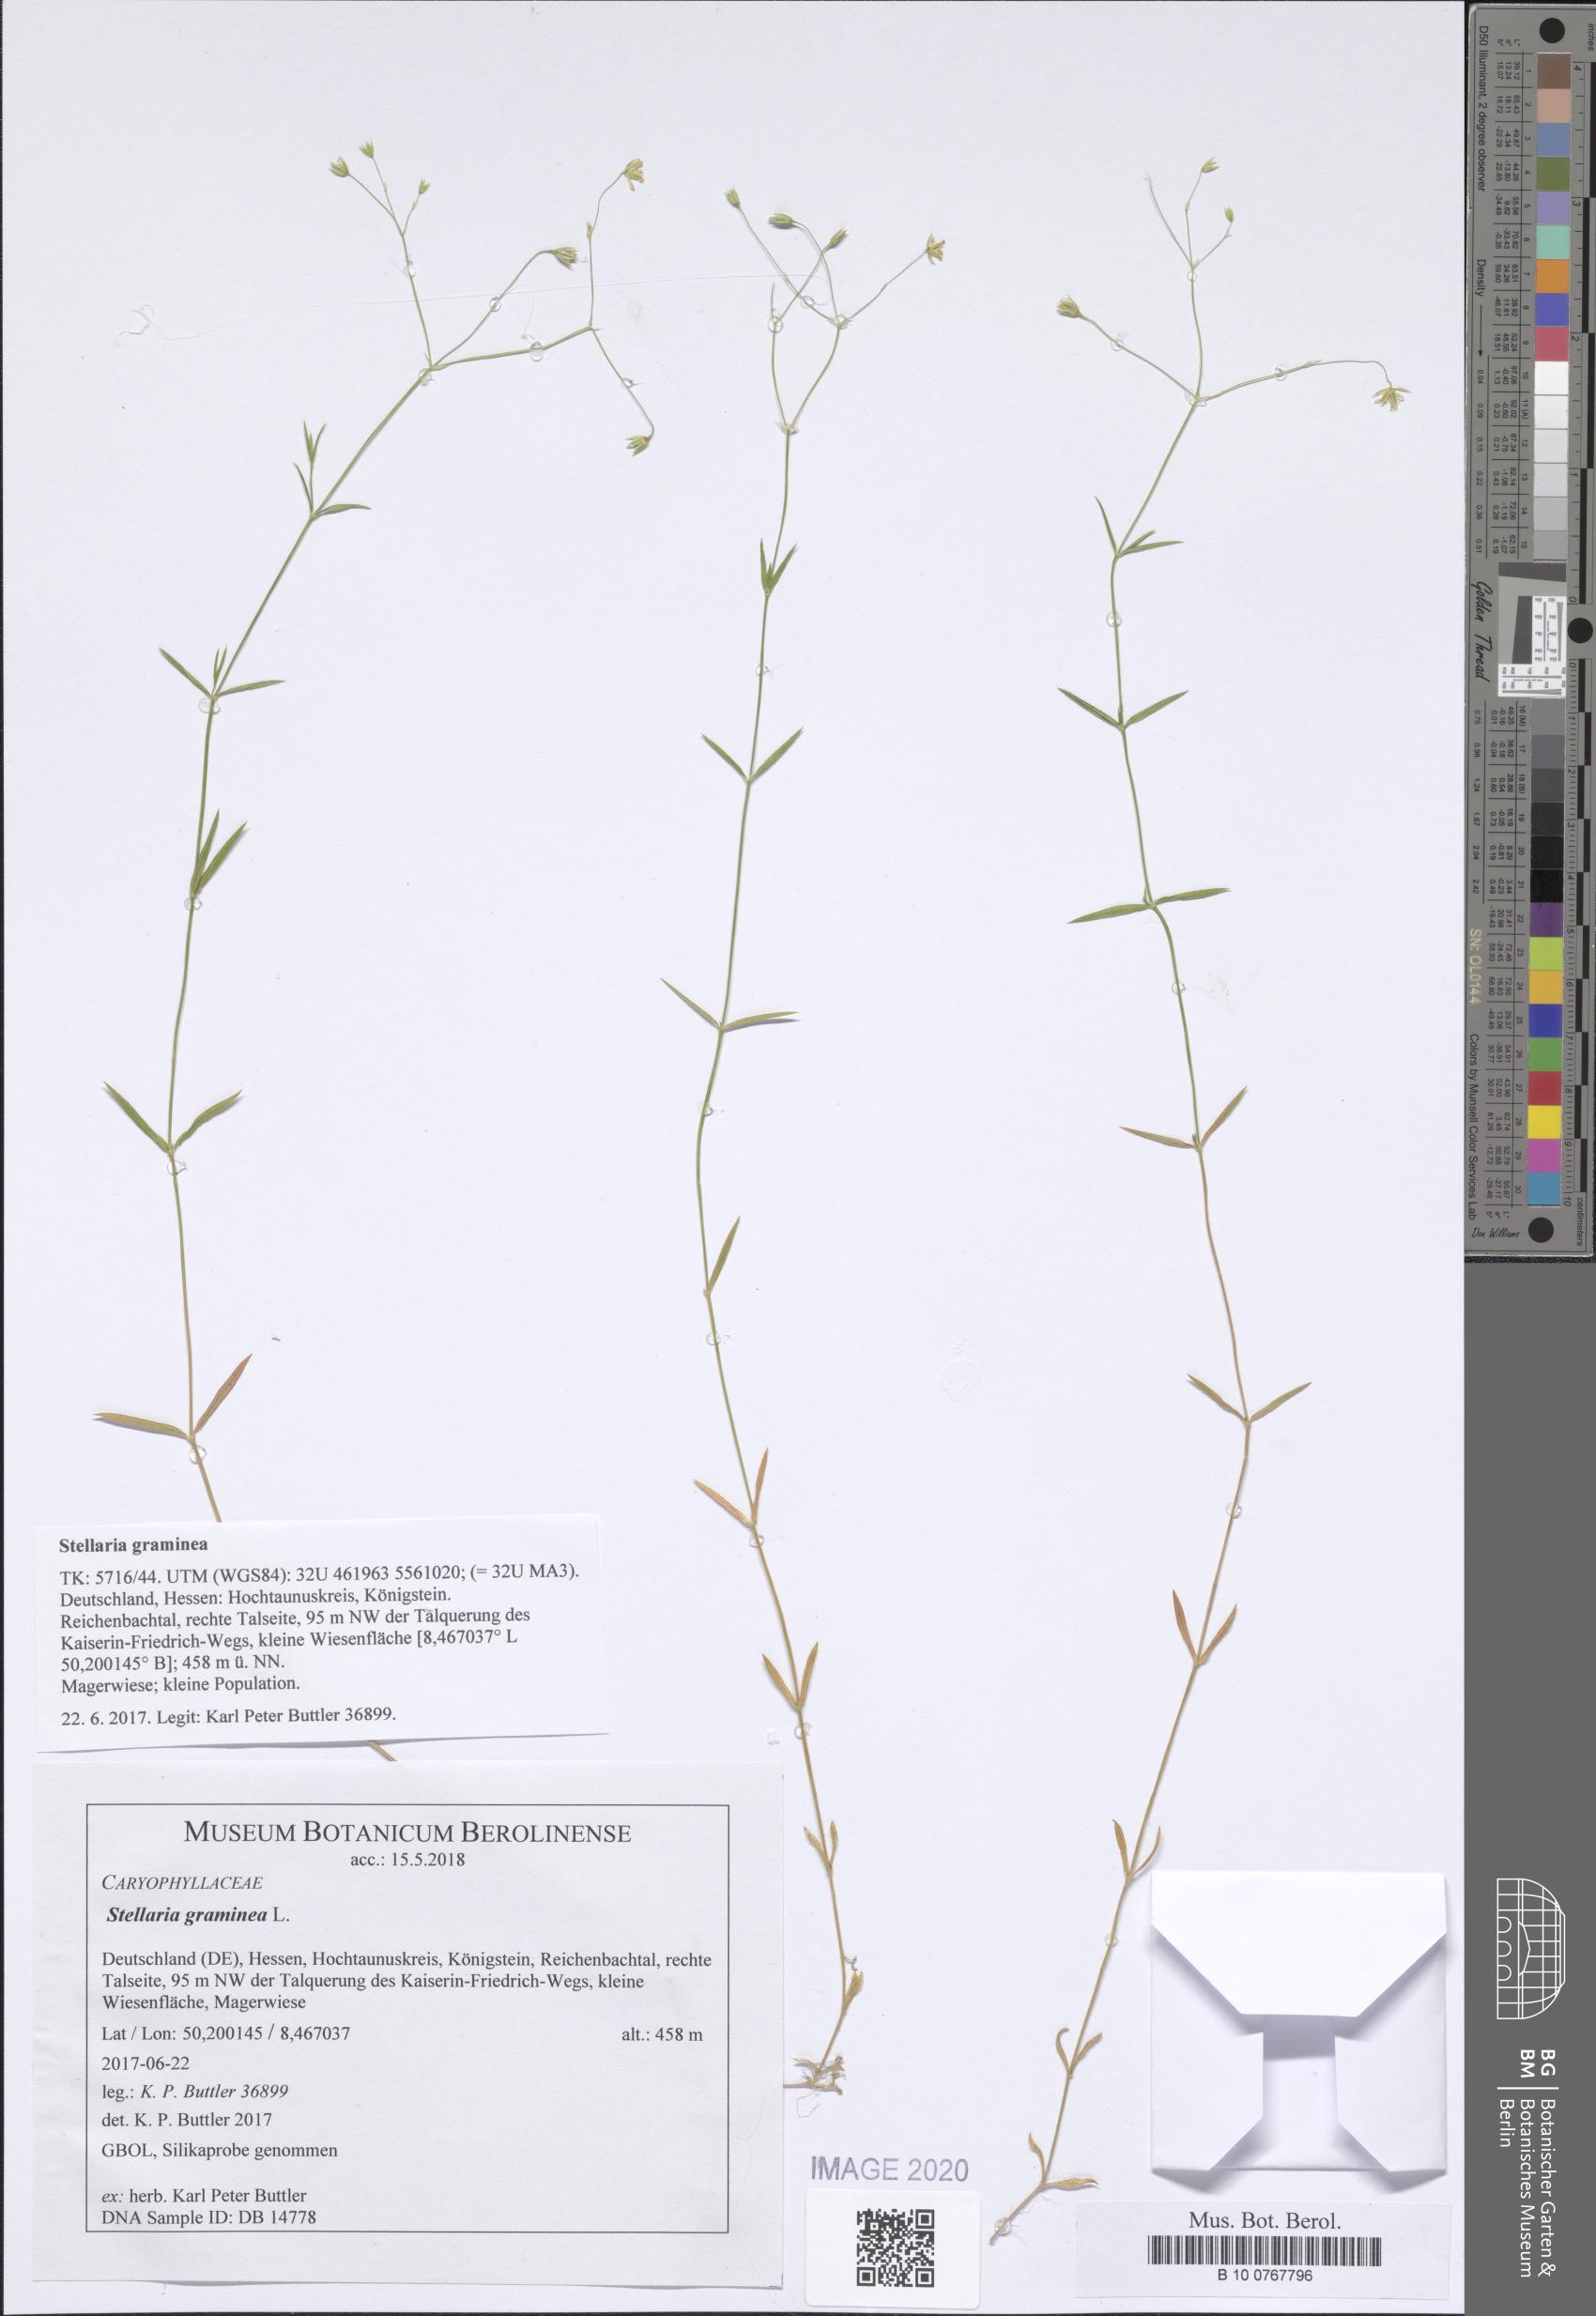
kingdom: Plantae
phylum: Tracheophyta
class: Magnoliopsida
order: Caryophyllales
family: Caryophyllaceae
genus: Stellaria
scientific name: Stellaria graminea
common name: Grass-like starwort
